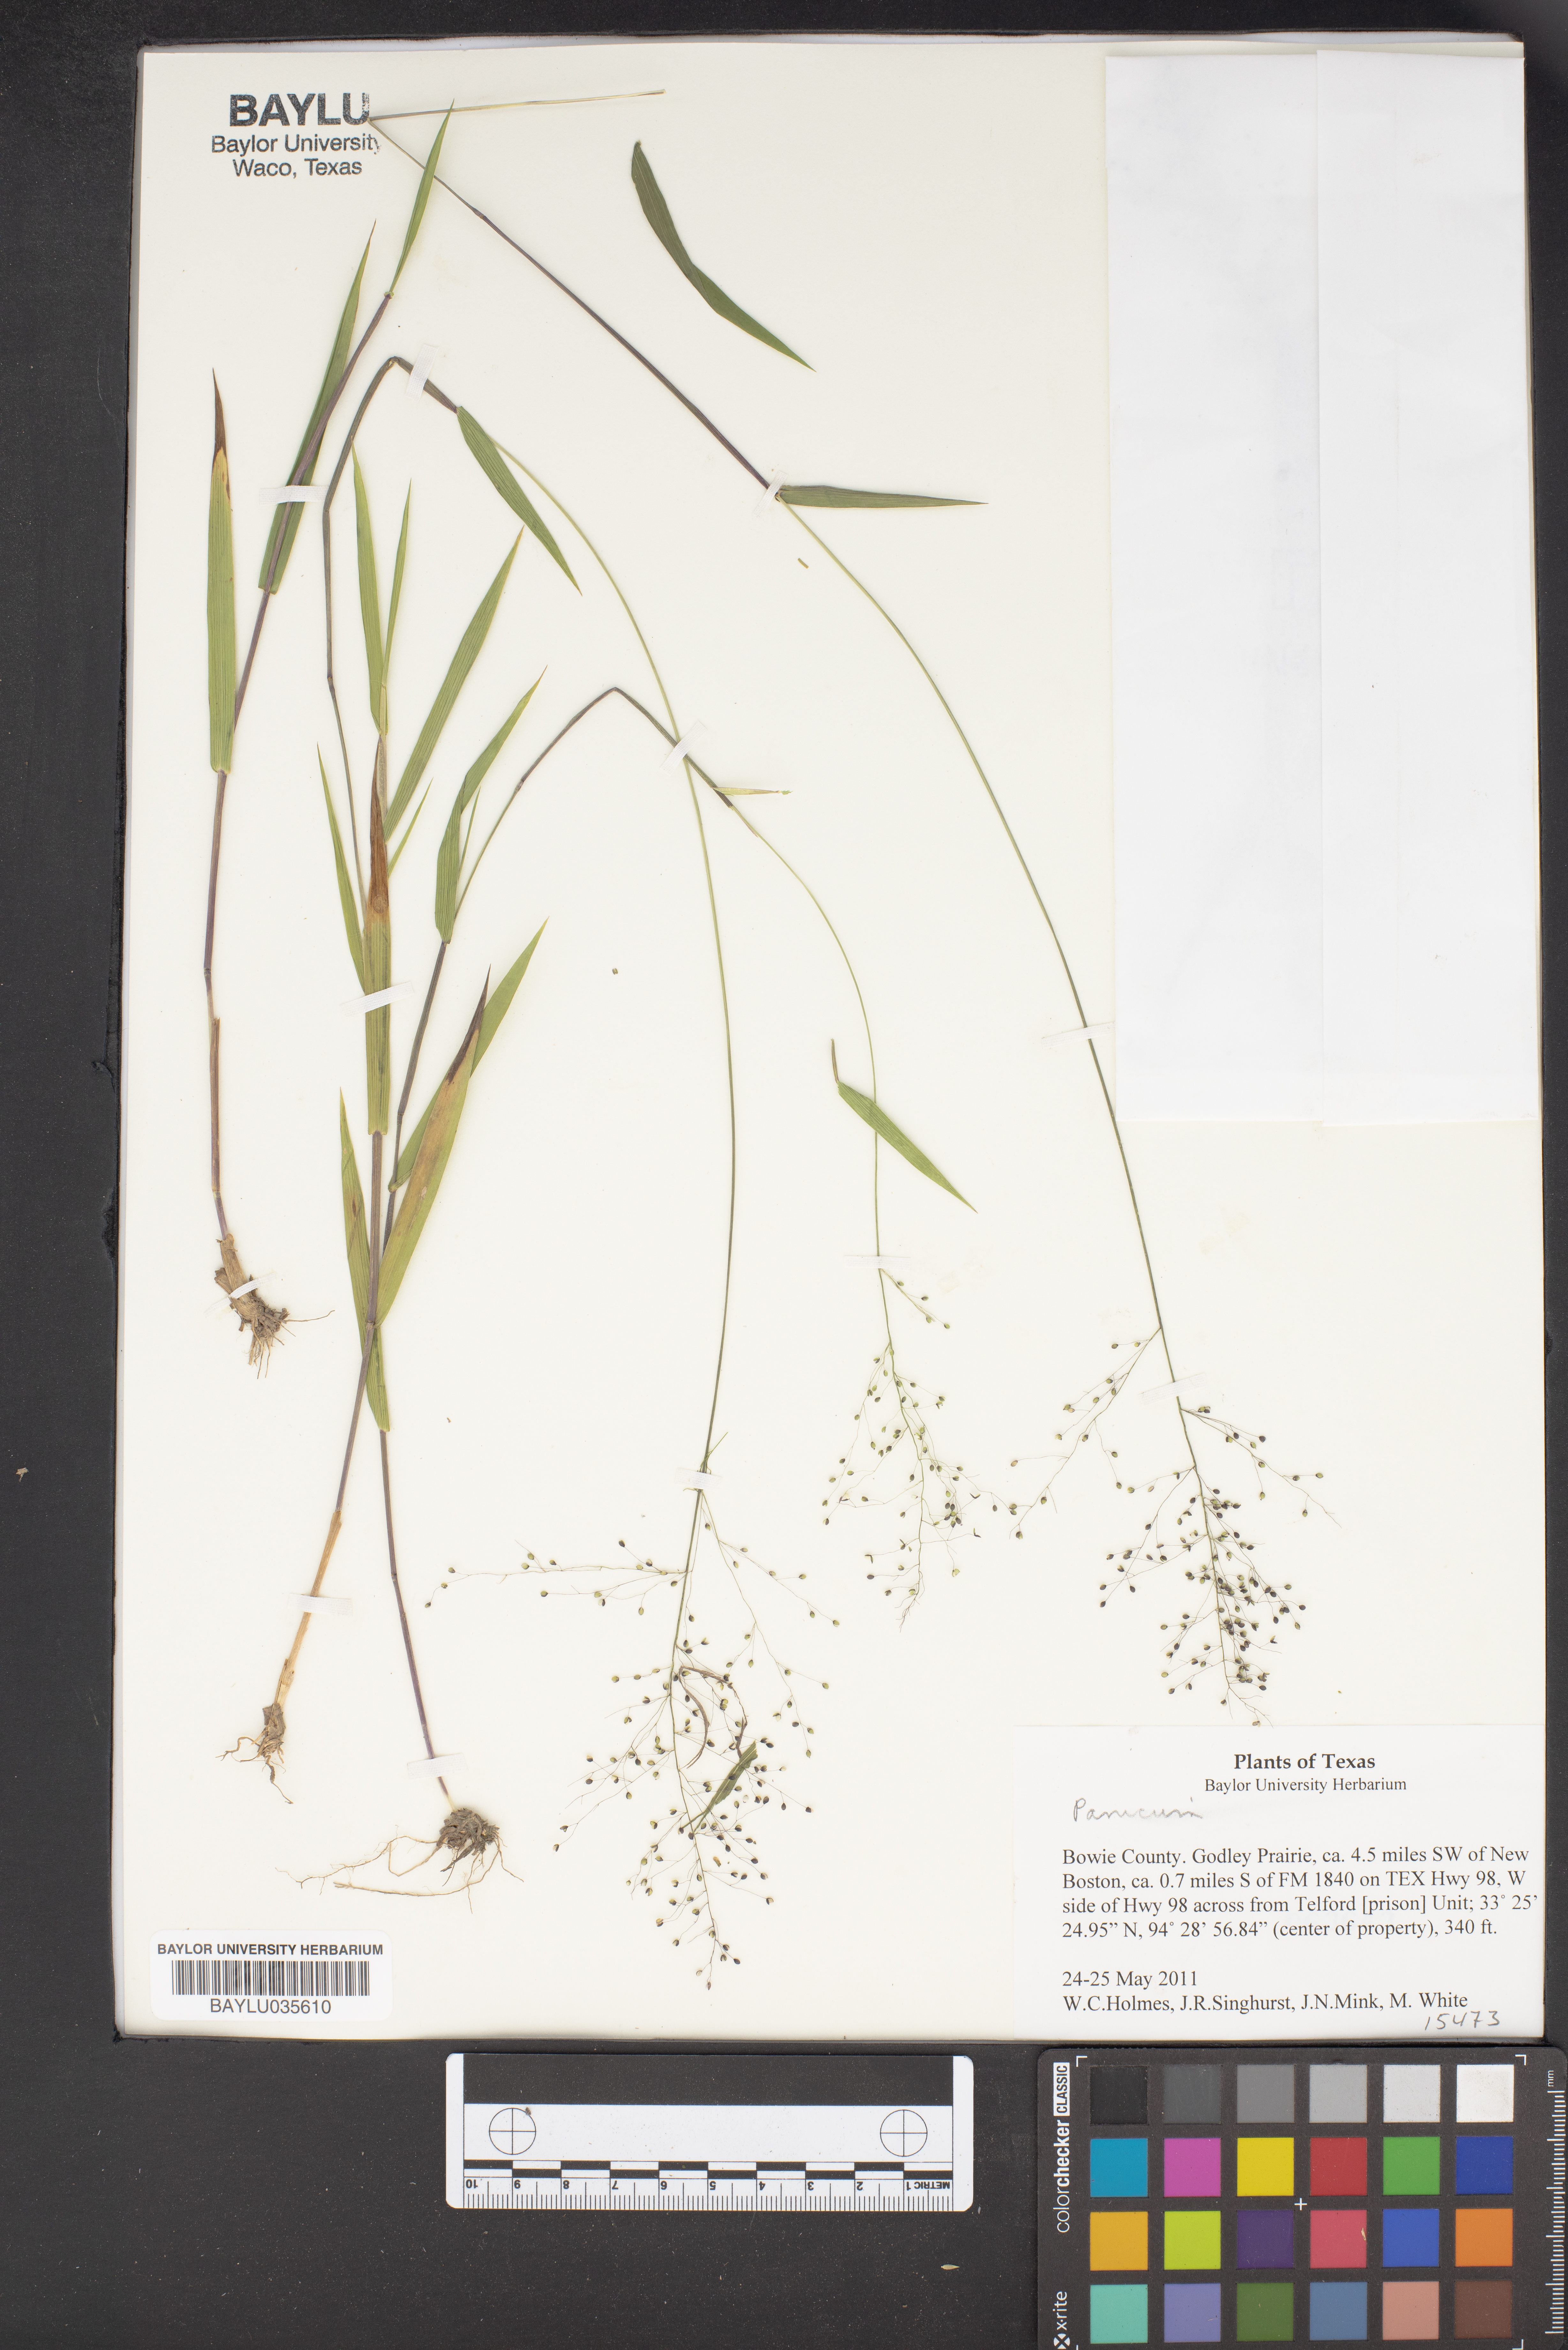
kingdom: Plantae
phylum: Tracheophyta
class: Liliopsida
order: Poales
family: Poaceae
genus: Panicum
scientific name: Panicum
